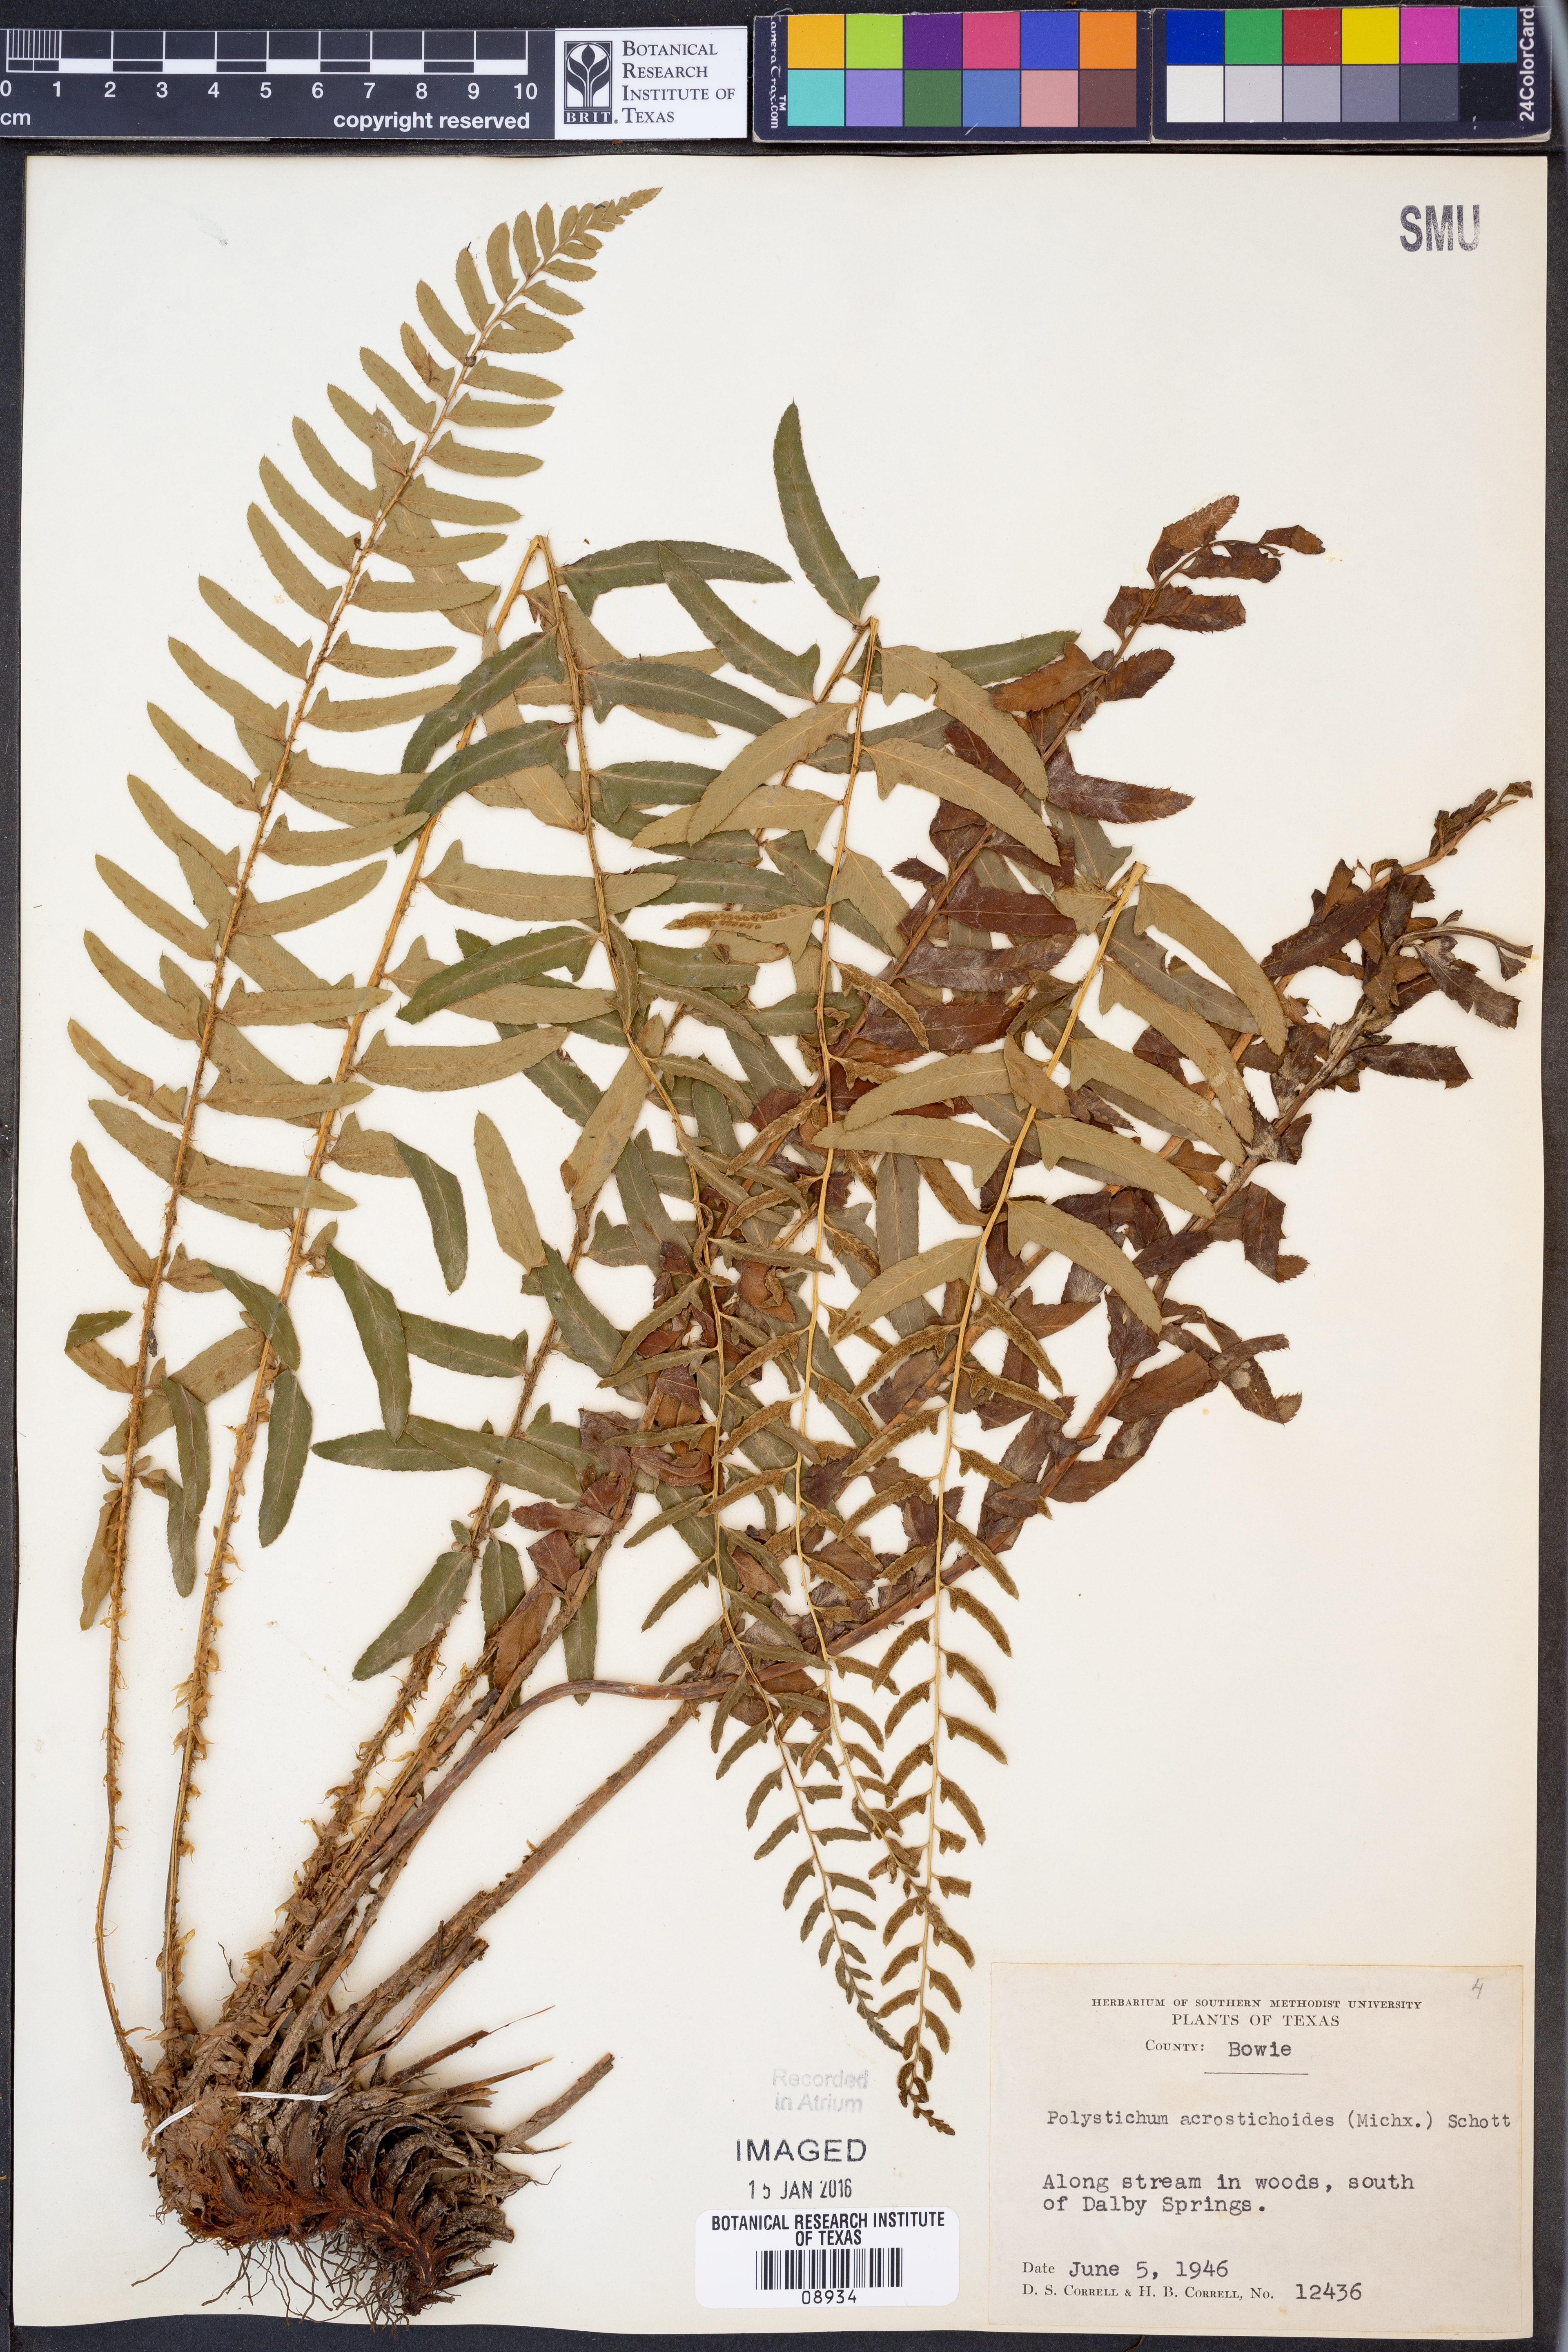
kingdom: Plantae
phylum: Tracheophyta
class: Polypodiopsida
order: Polypodiales
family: Dryopteridaceae
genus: Polystichum
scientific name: Polystichum acrostichoides
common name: Christmas fern
